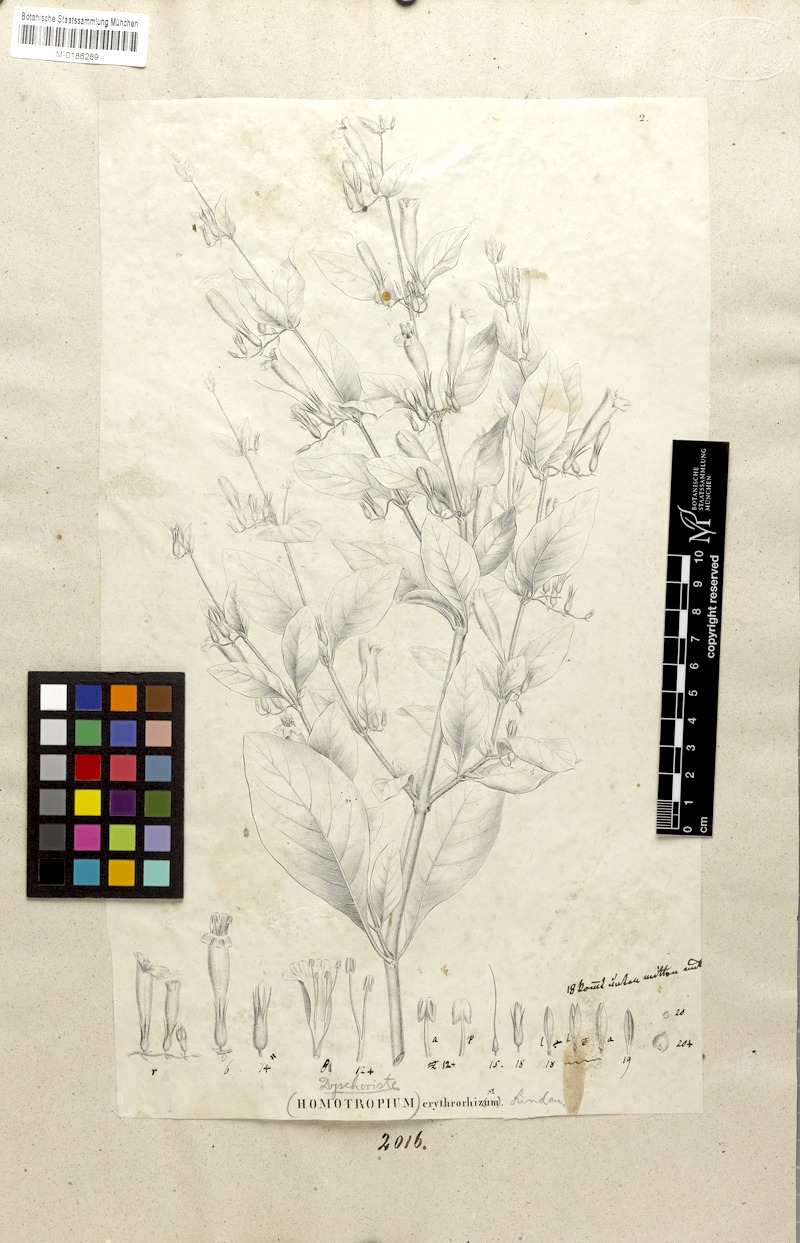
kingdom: Plantae
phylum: Tracheophyta
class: Magnoliopsida
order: Lamiales
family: Acanthaceae
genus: Dyschoriste
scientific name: Dyschoriste erythrorhiza
